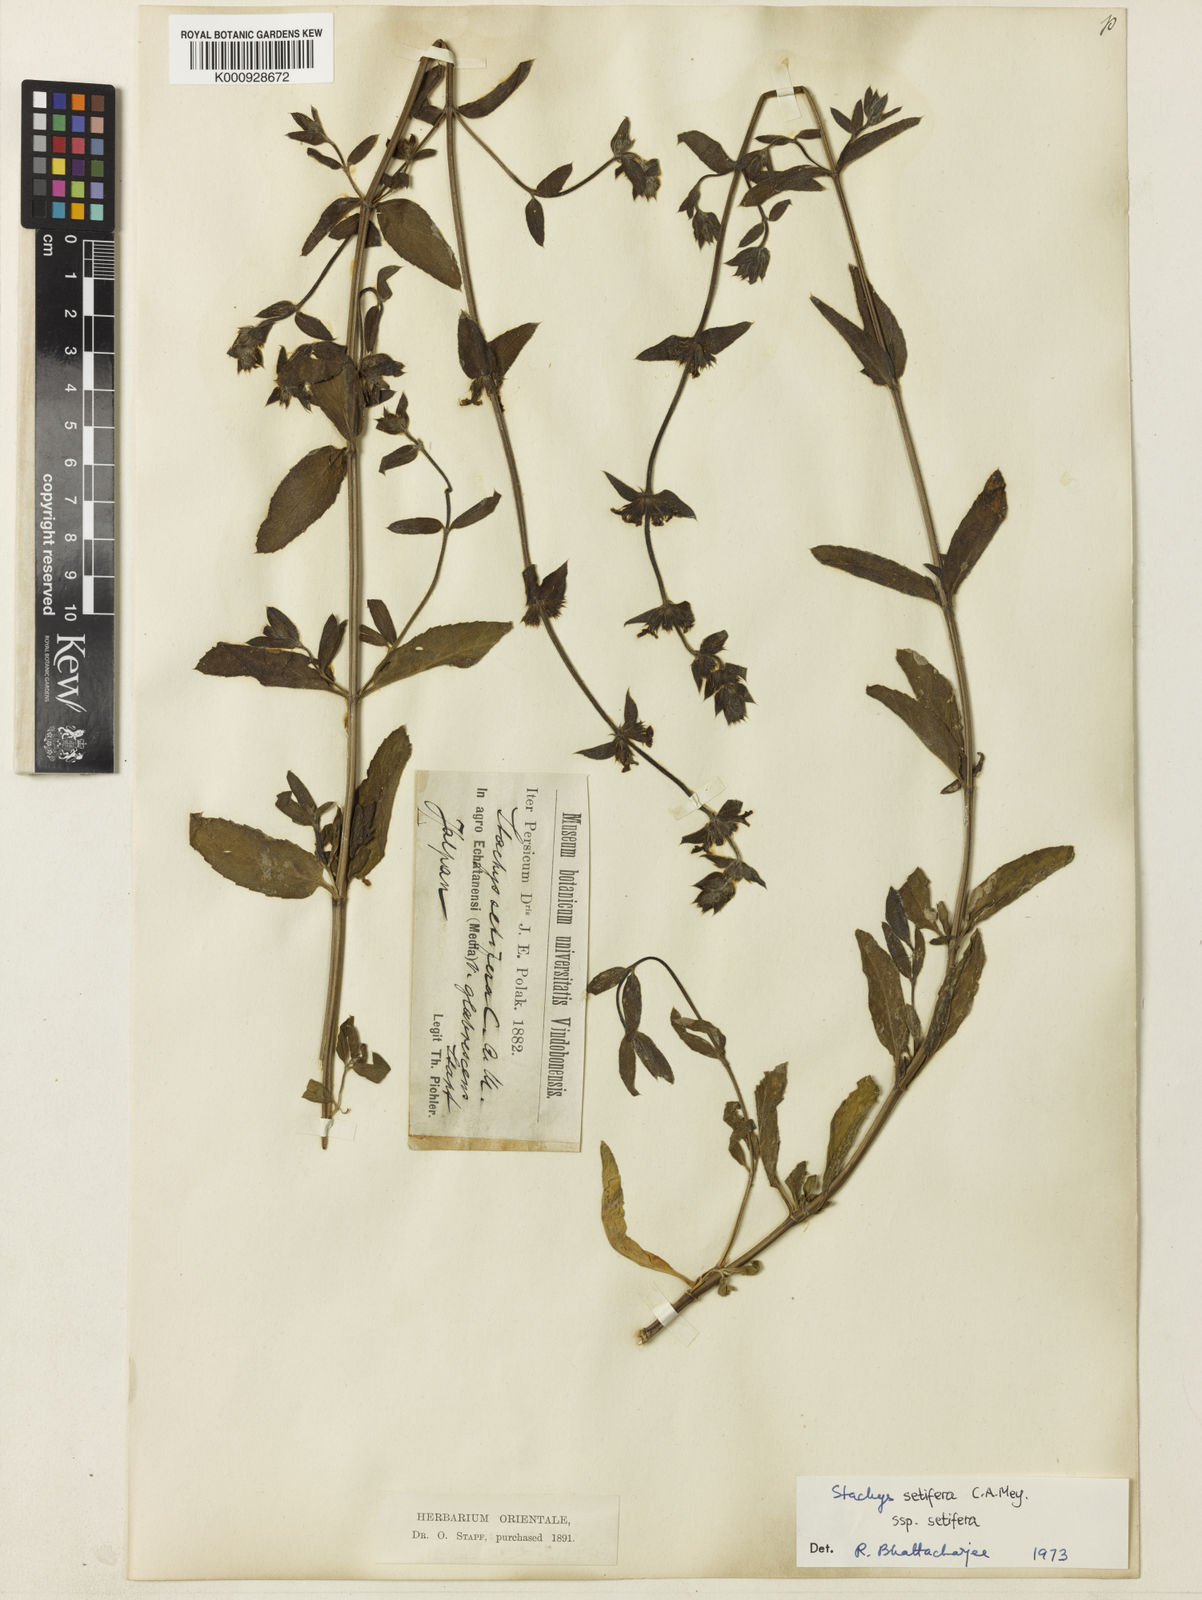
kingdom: Plantae
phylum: Tracheophyta
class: Magnoliopsida
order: Lamiales
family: Lamiaceae
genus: Stachys
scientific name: Stachys setifera
